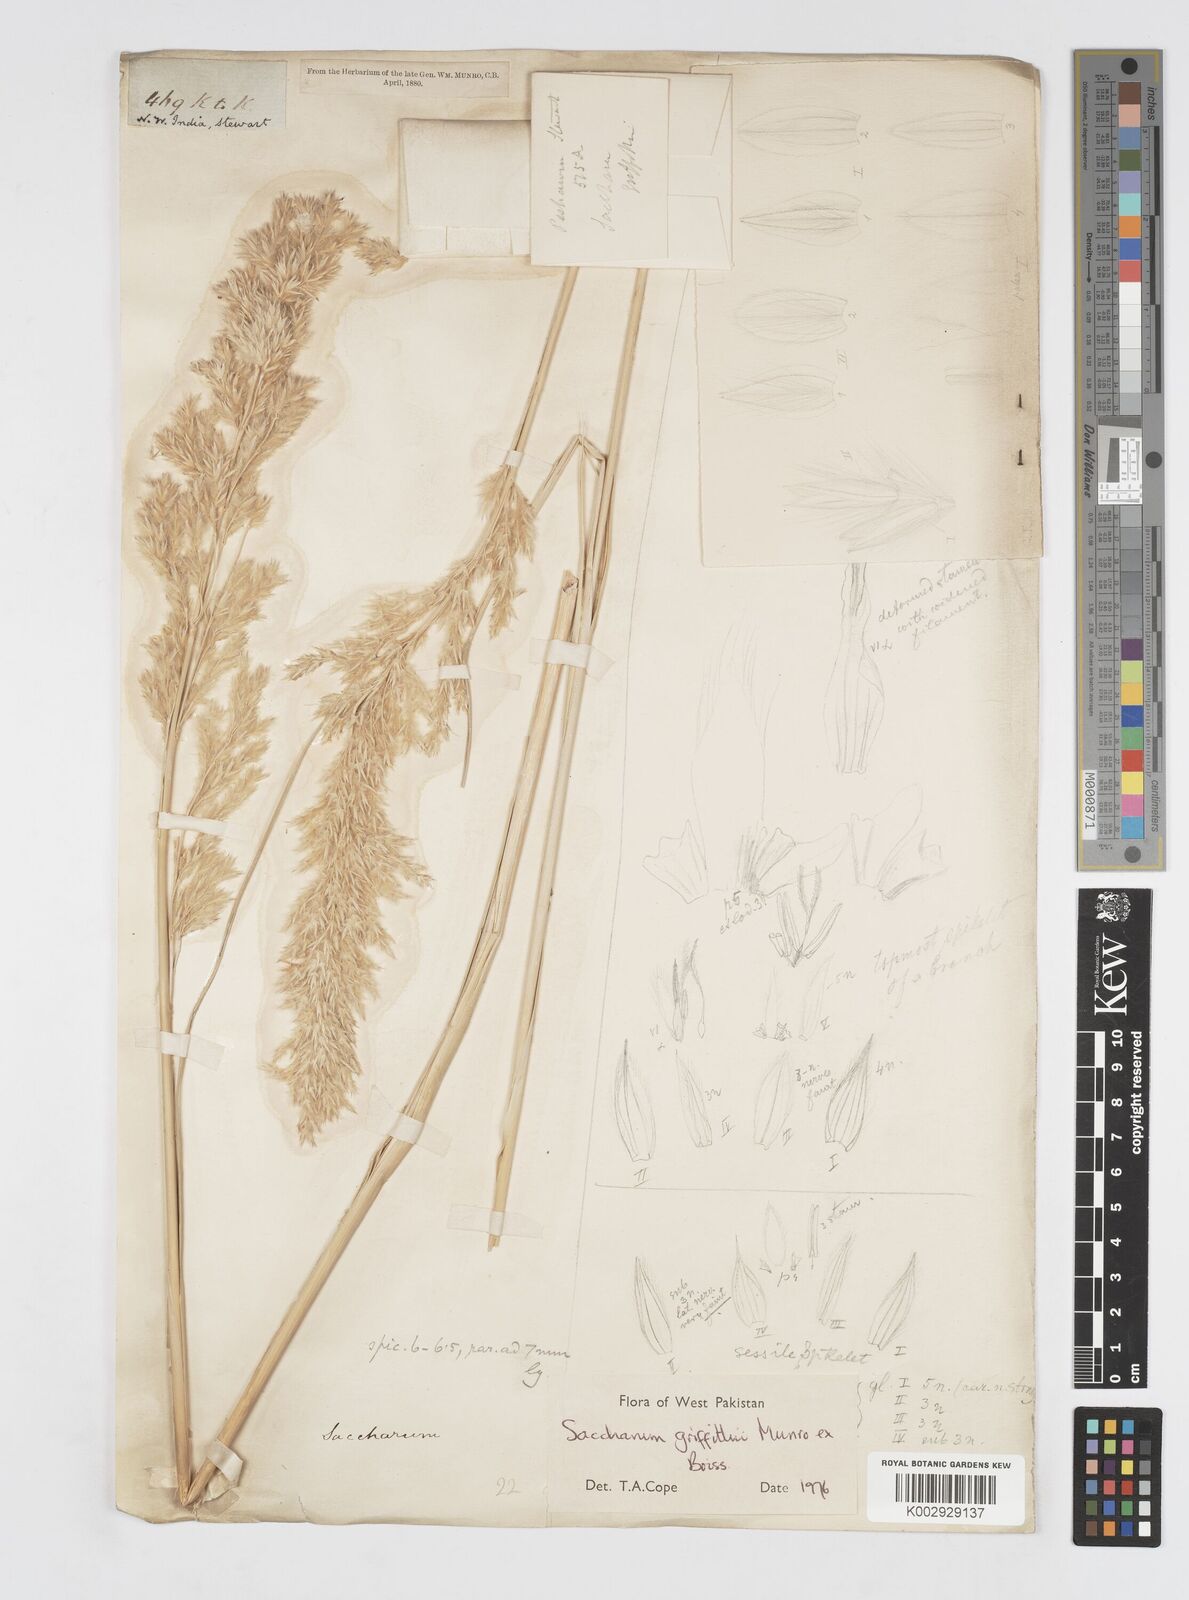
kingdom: Plantae
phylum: Tracheophyta
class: Liliopsida
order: Poales
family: Poaceae
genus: Saccharum
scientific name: Saccharum griffithii
